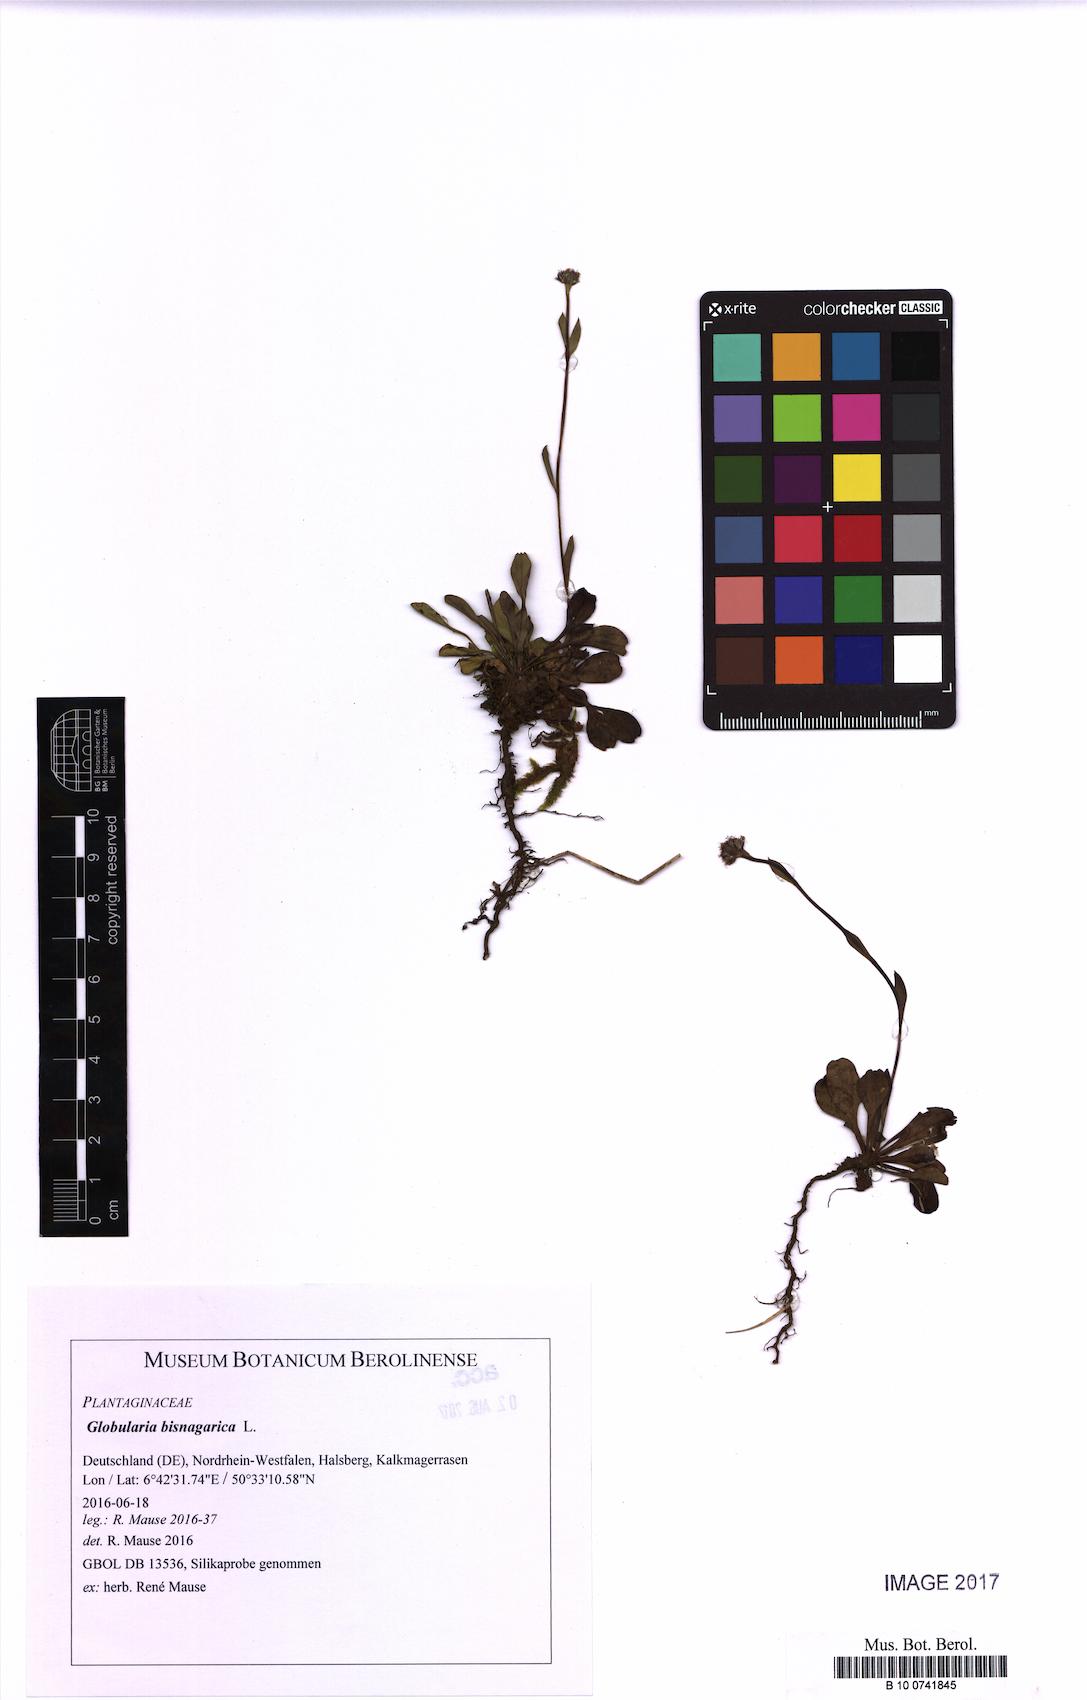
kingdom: Plantae
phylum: Tracheophyta
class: Magnoliopsida
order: Lamiales
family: Plantaginaceae
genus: Globularia
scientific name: Globularia bisnagarica
